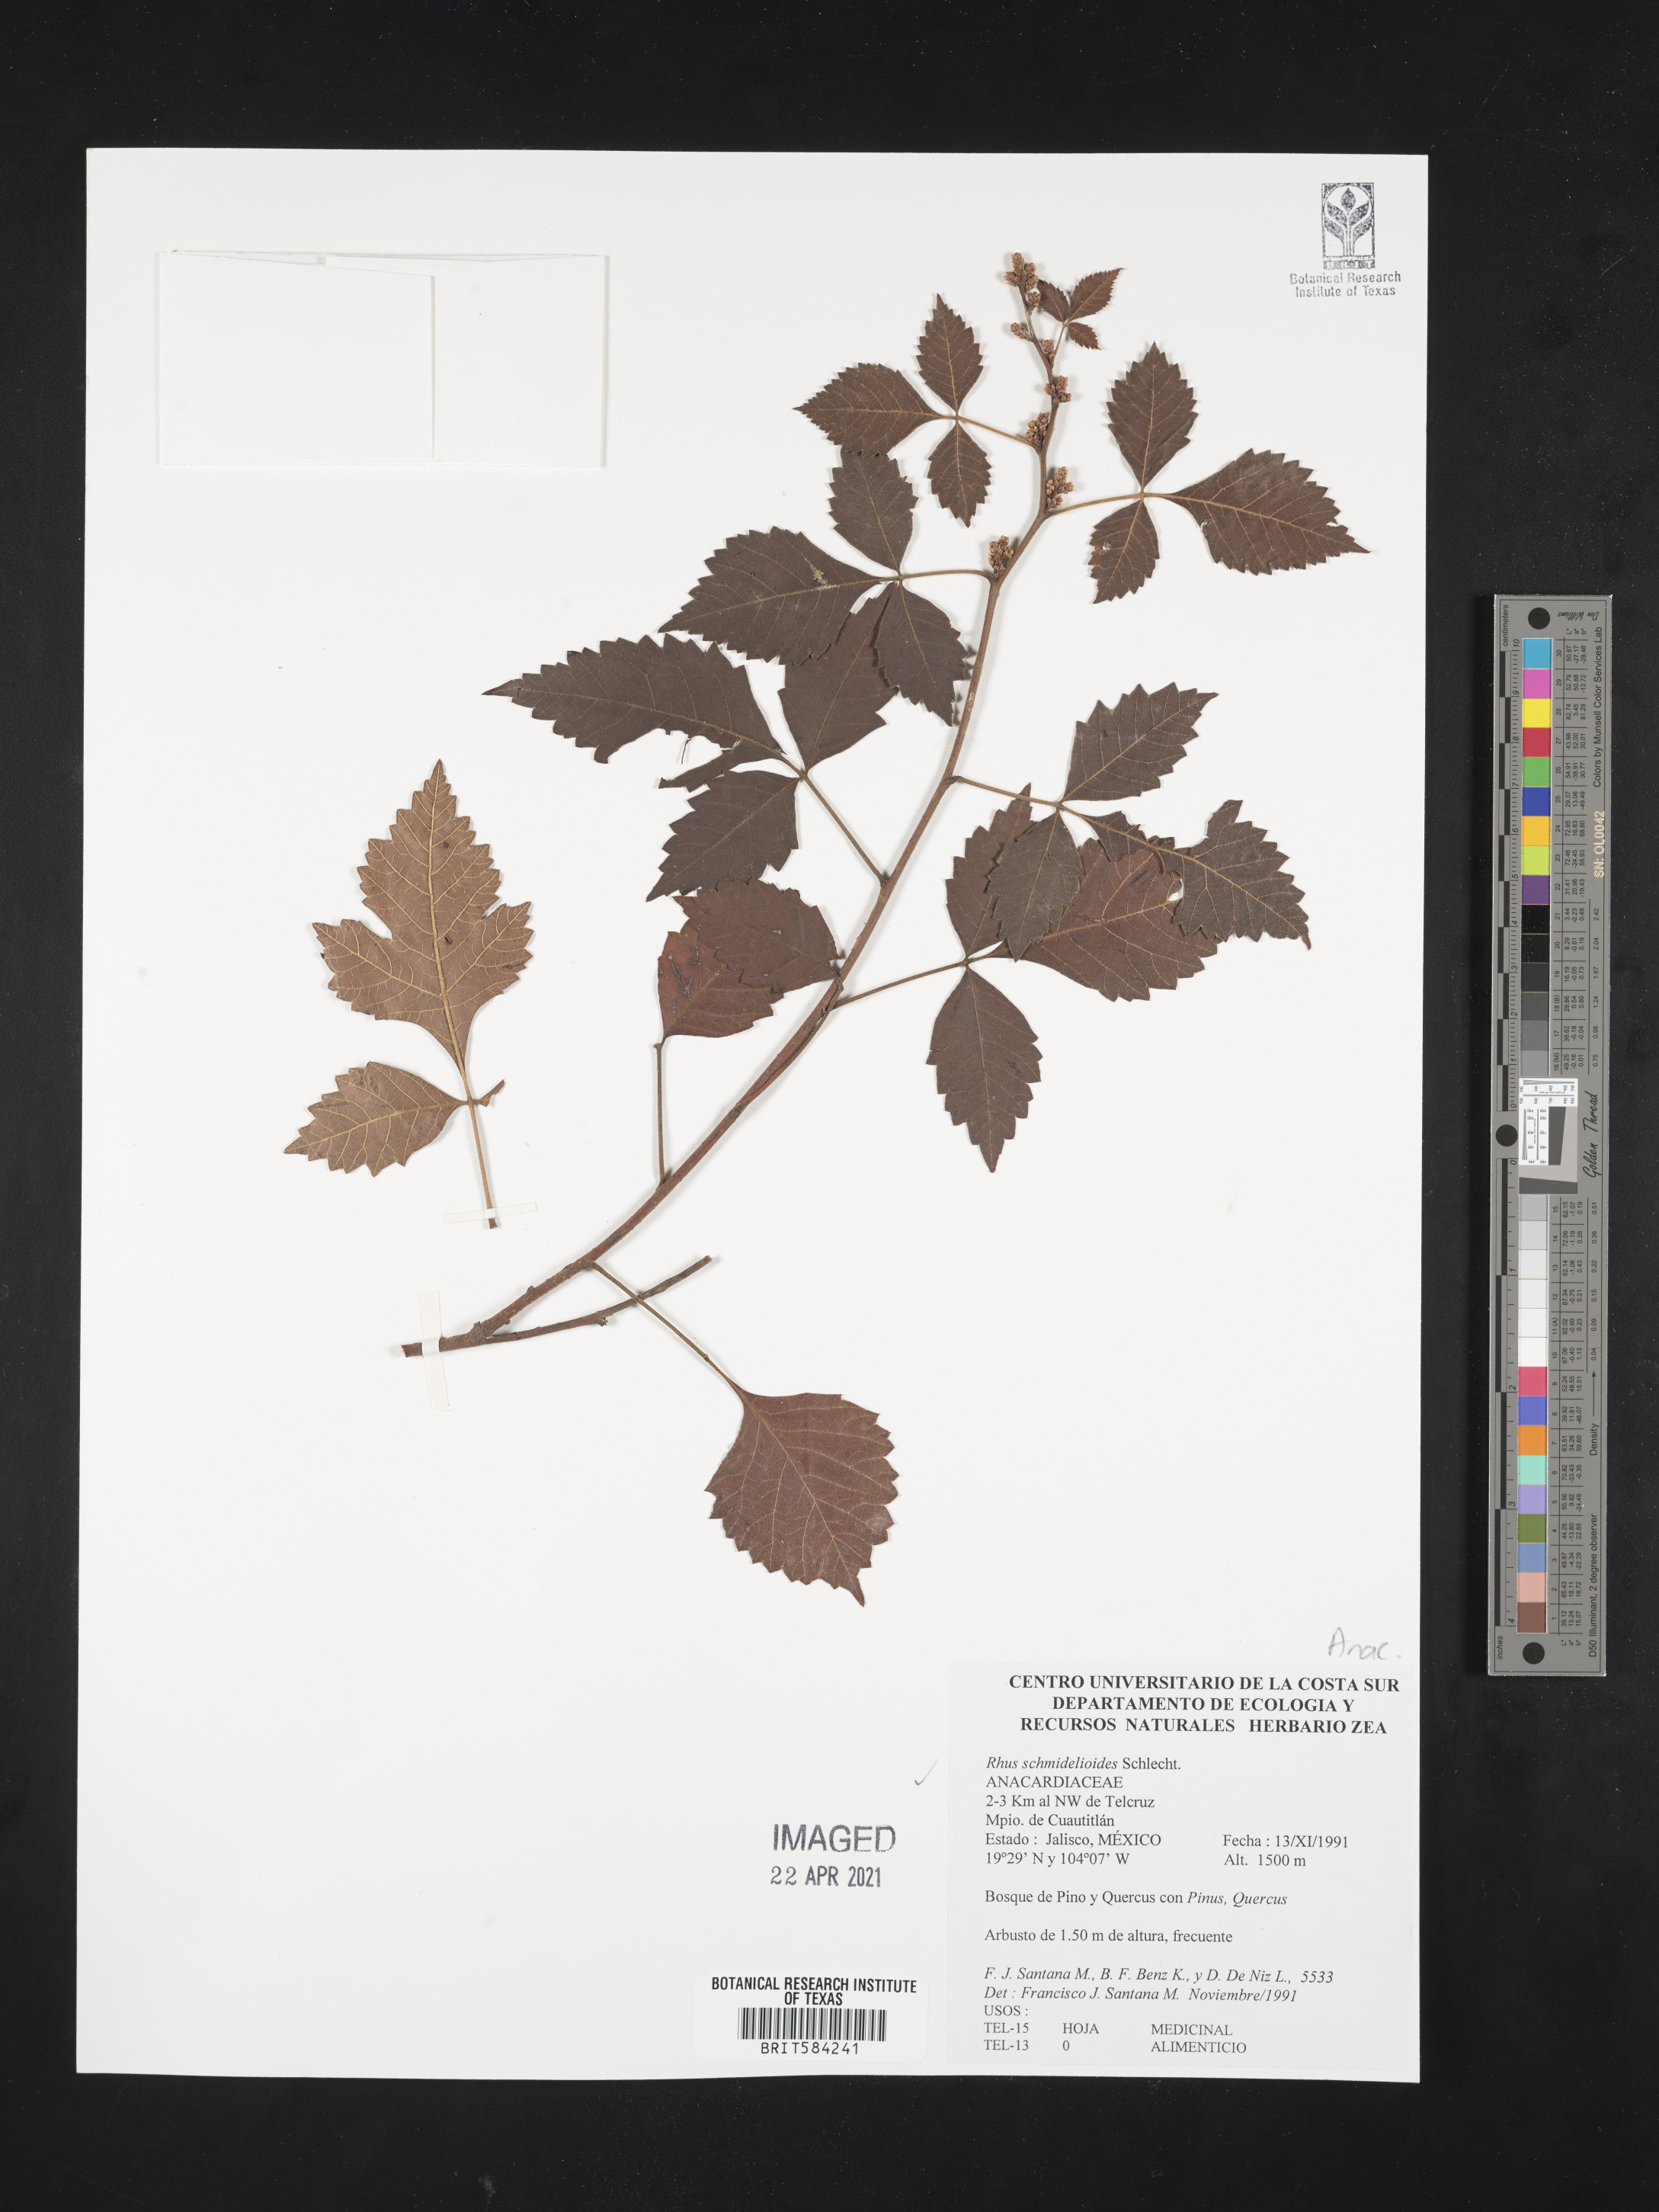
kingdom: Plantae
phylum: Tracheophyta
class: Magnoliopsida
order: Sapindales
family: Anacardiaceae
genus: Rhus
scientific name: Rhus schmideloides
